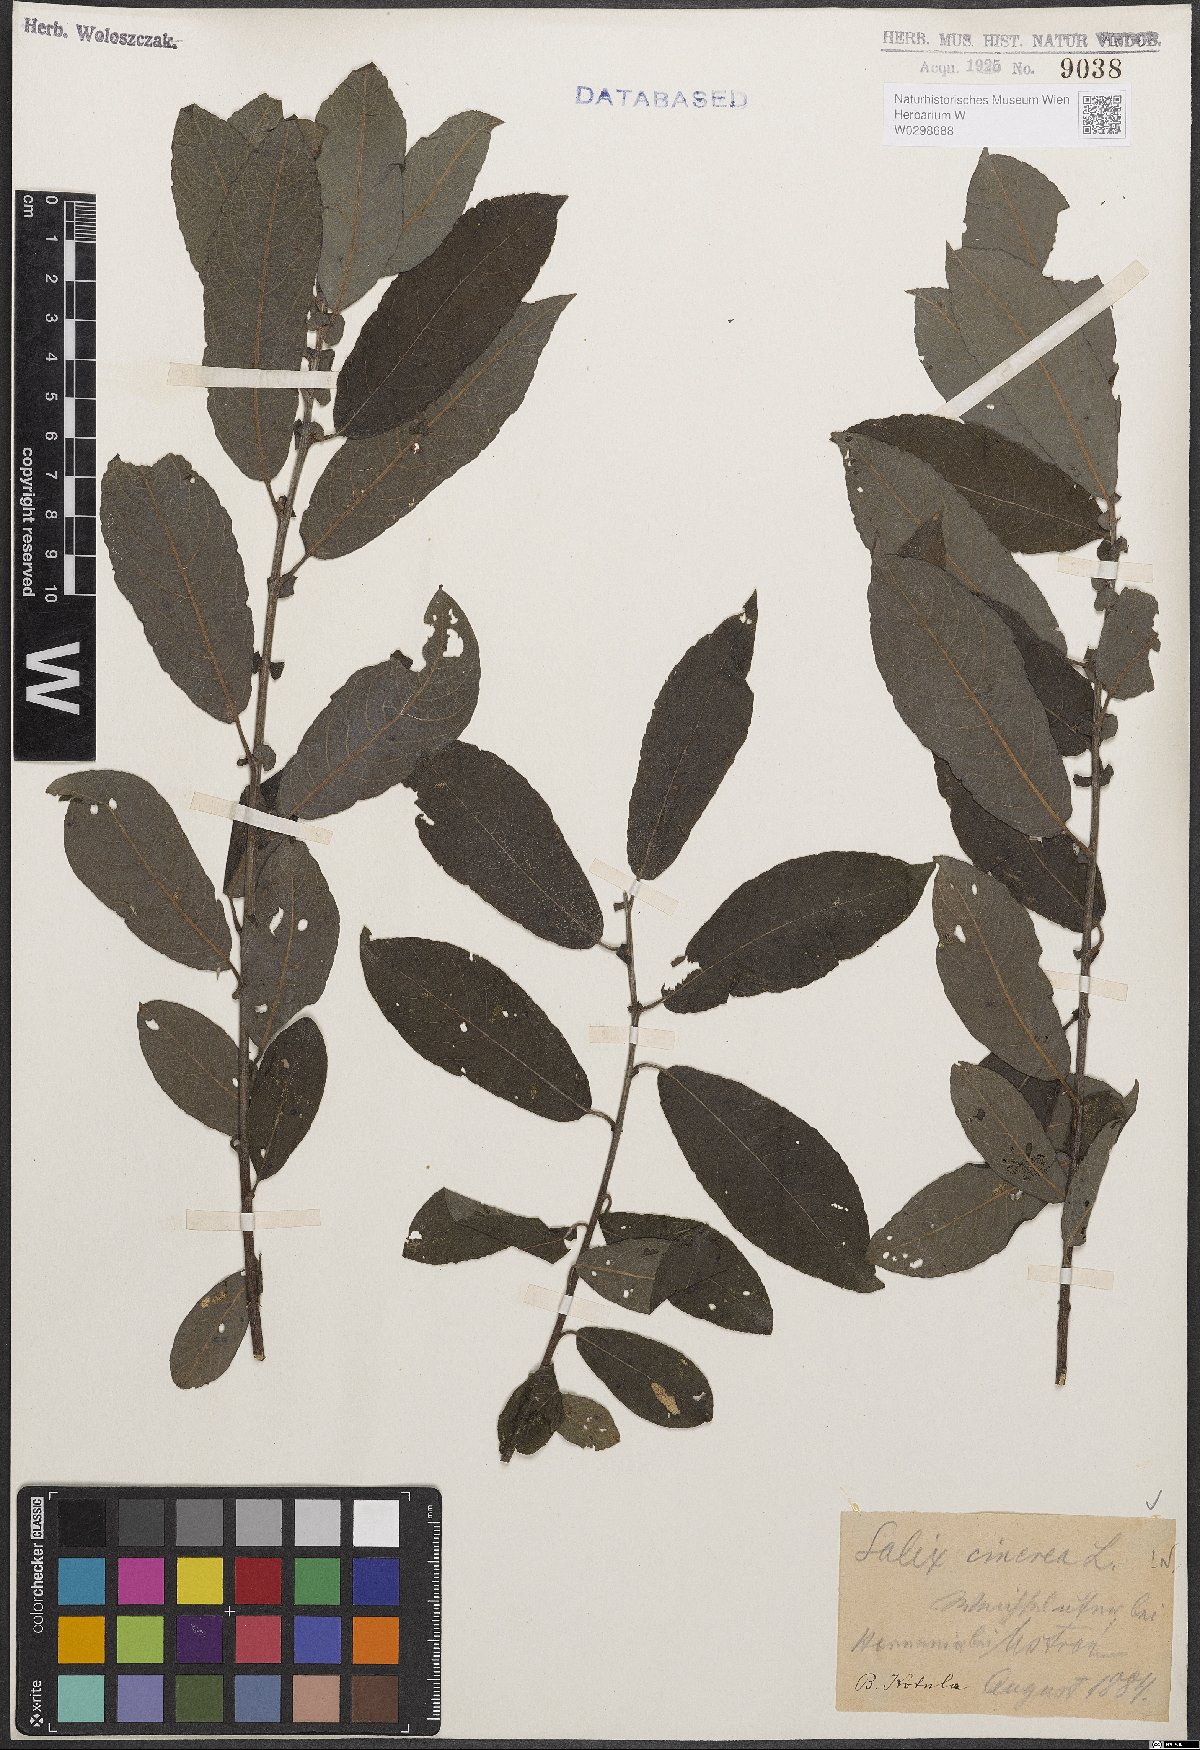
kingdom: Plantae
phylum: Tracheophyta
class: Magnoliopsida
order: Malpighiales
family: Salicaceae
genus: Salix
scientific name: Salix cinerea
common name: Common sallow
